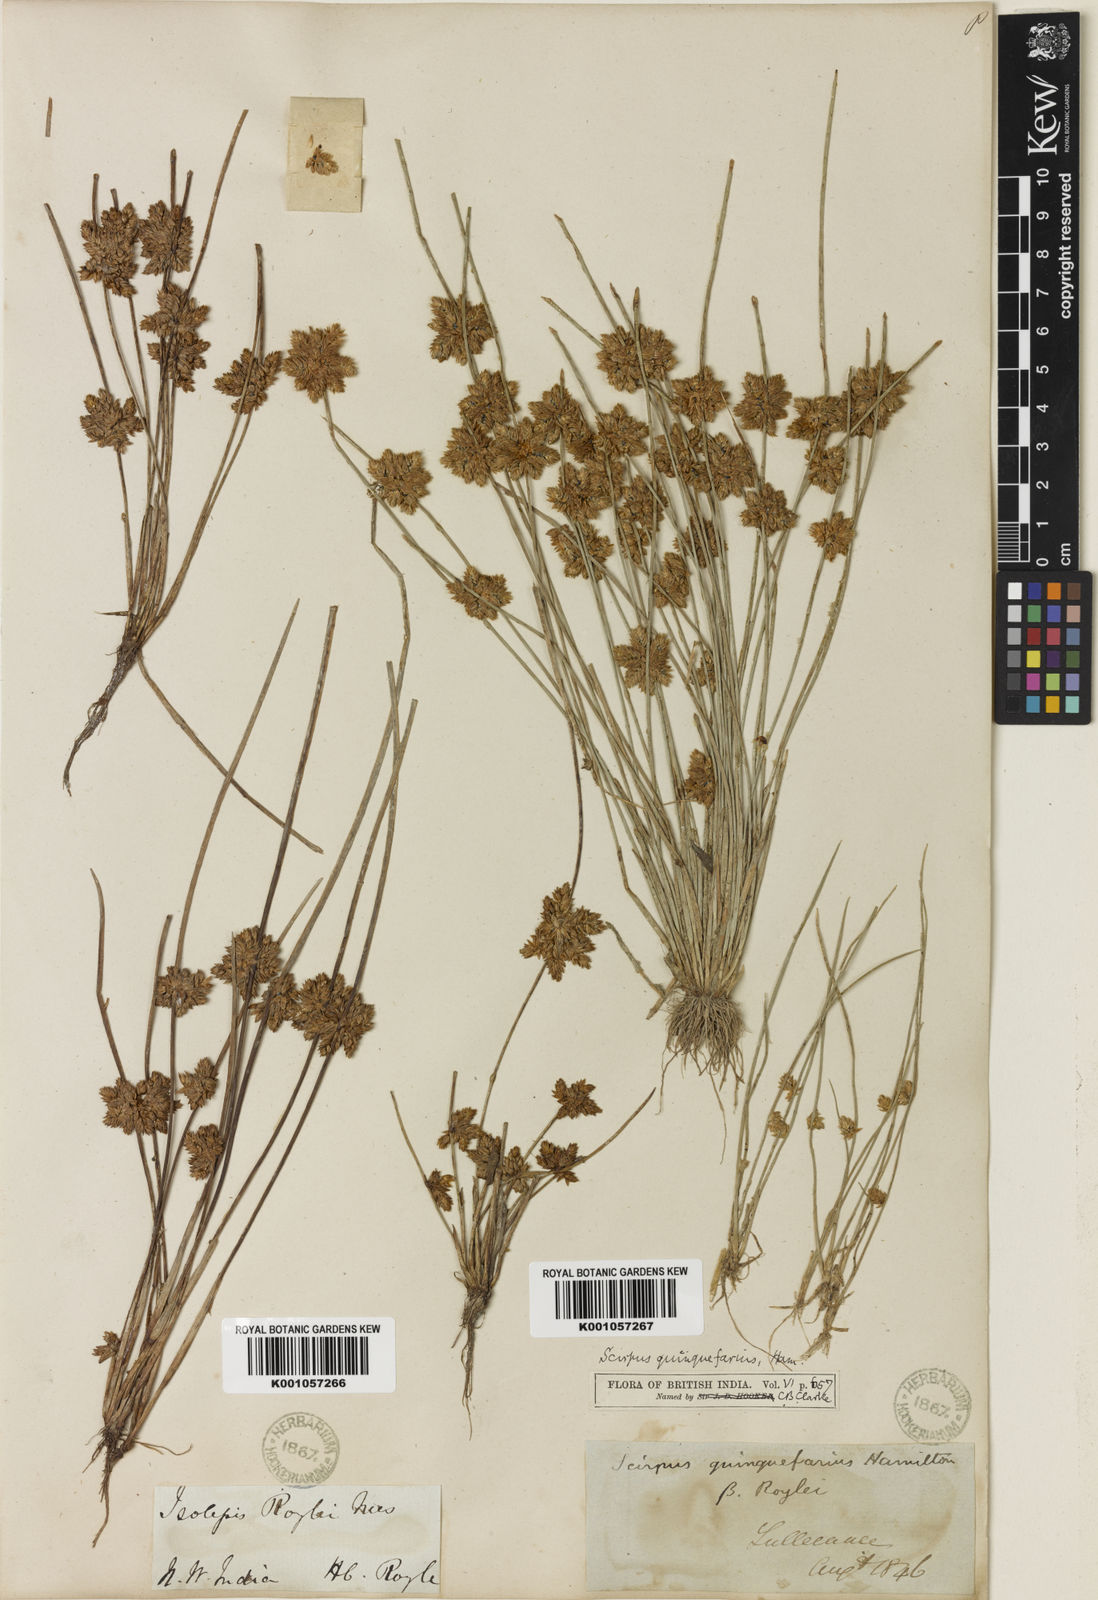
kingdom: Plantae
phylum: Tracheophyta
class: Liliopsida
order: Poales
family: Cyperaceae
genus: Schoenoplectiella
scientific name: Schoenoplectiella roylei
